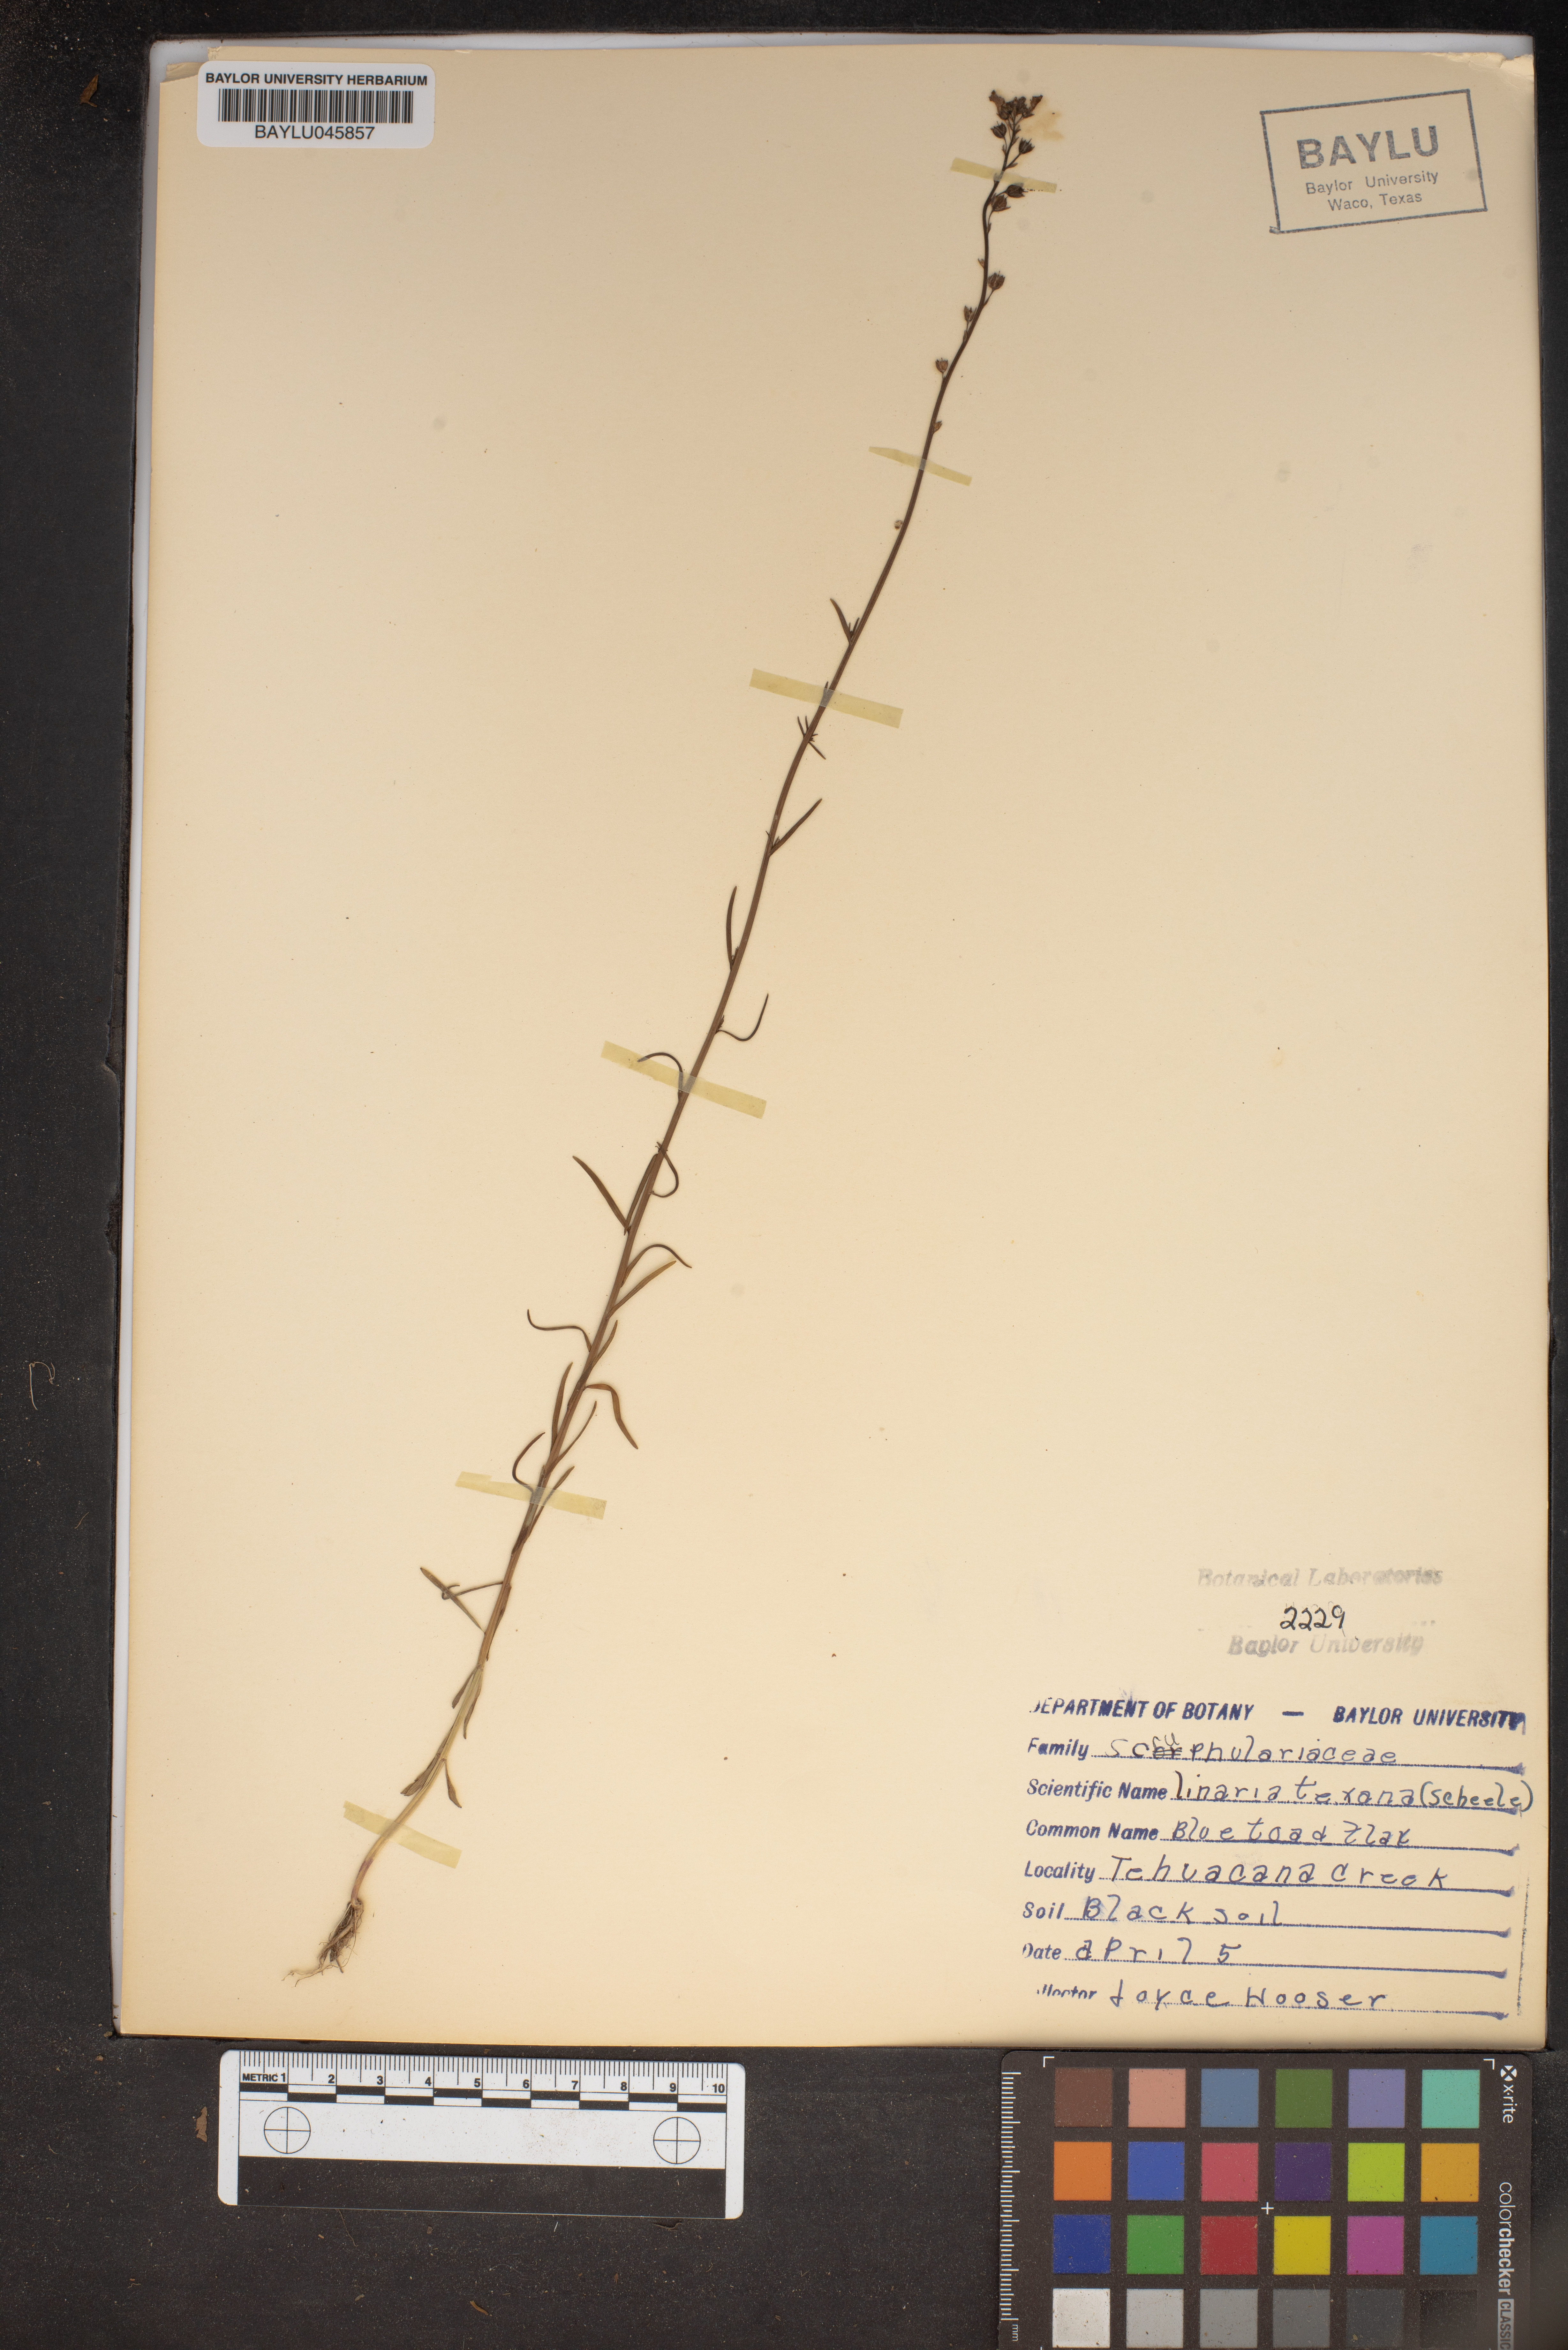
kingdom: Plantae
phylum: Tracheophyta
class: Magnoliopsida
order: Lamiales
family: Plantaginaceae
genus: Nuttallanthus
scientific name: Nuttallanthus texanus
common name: Texas toadflax
